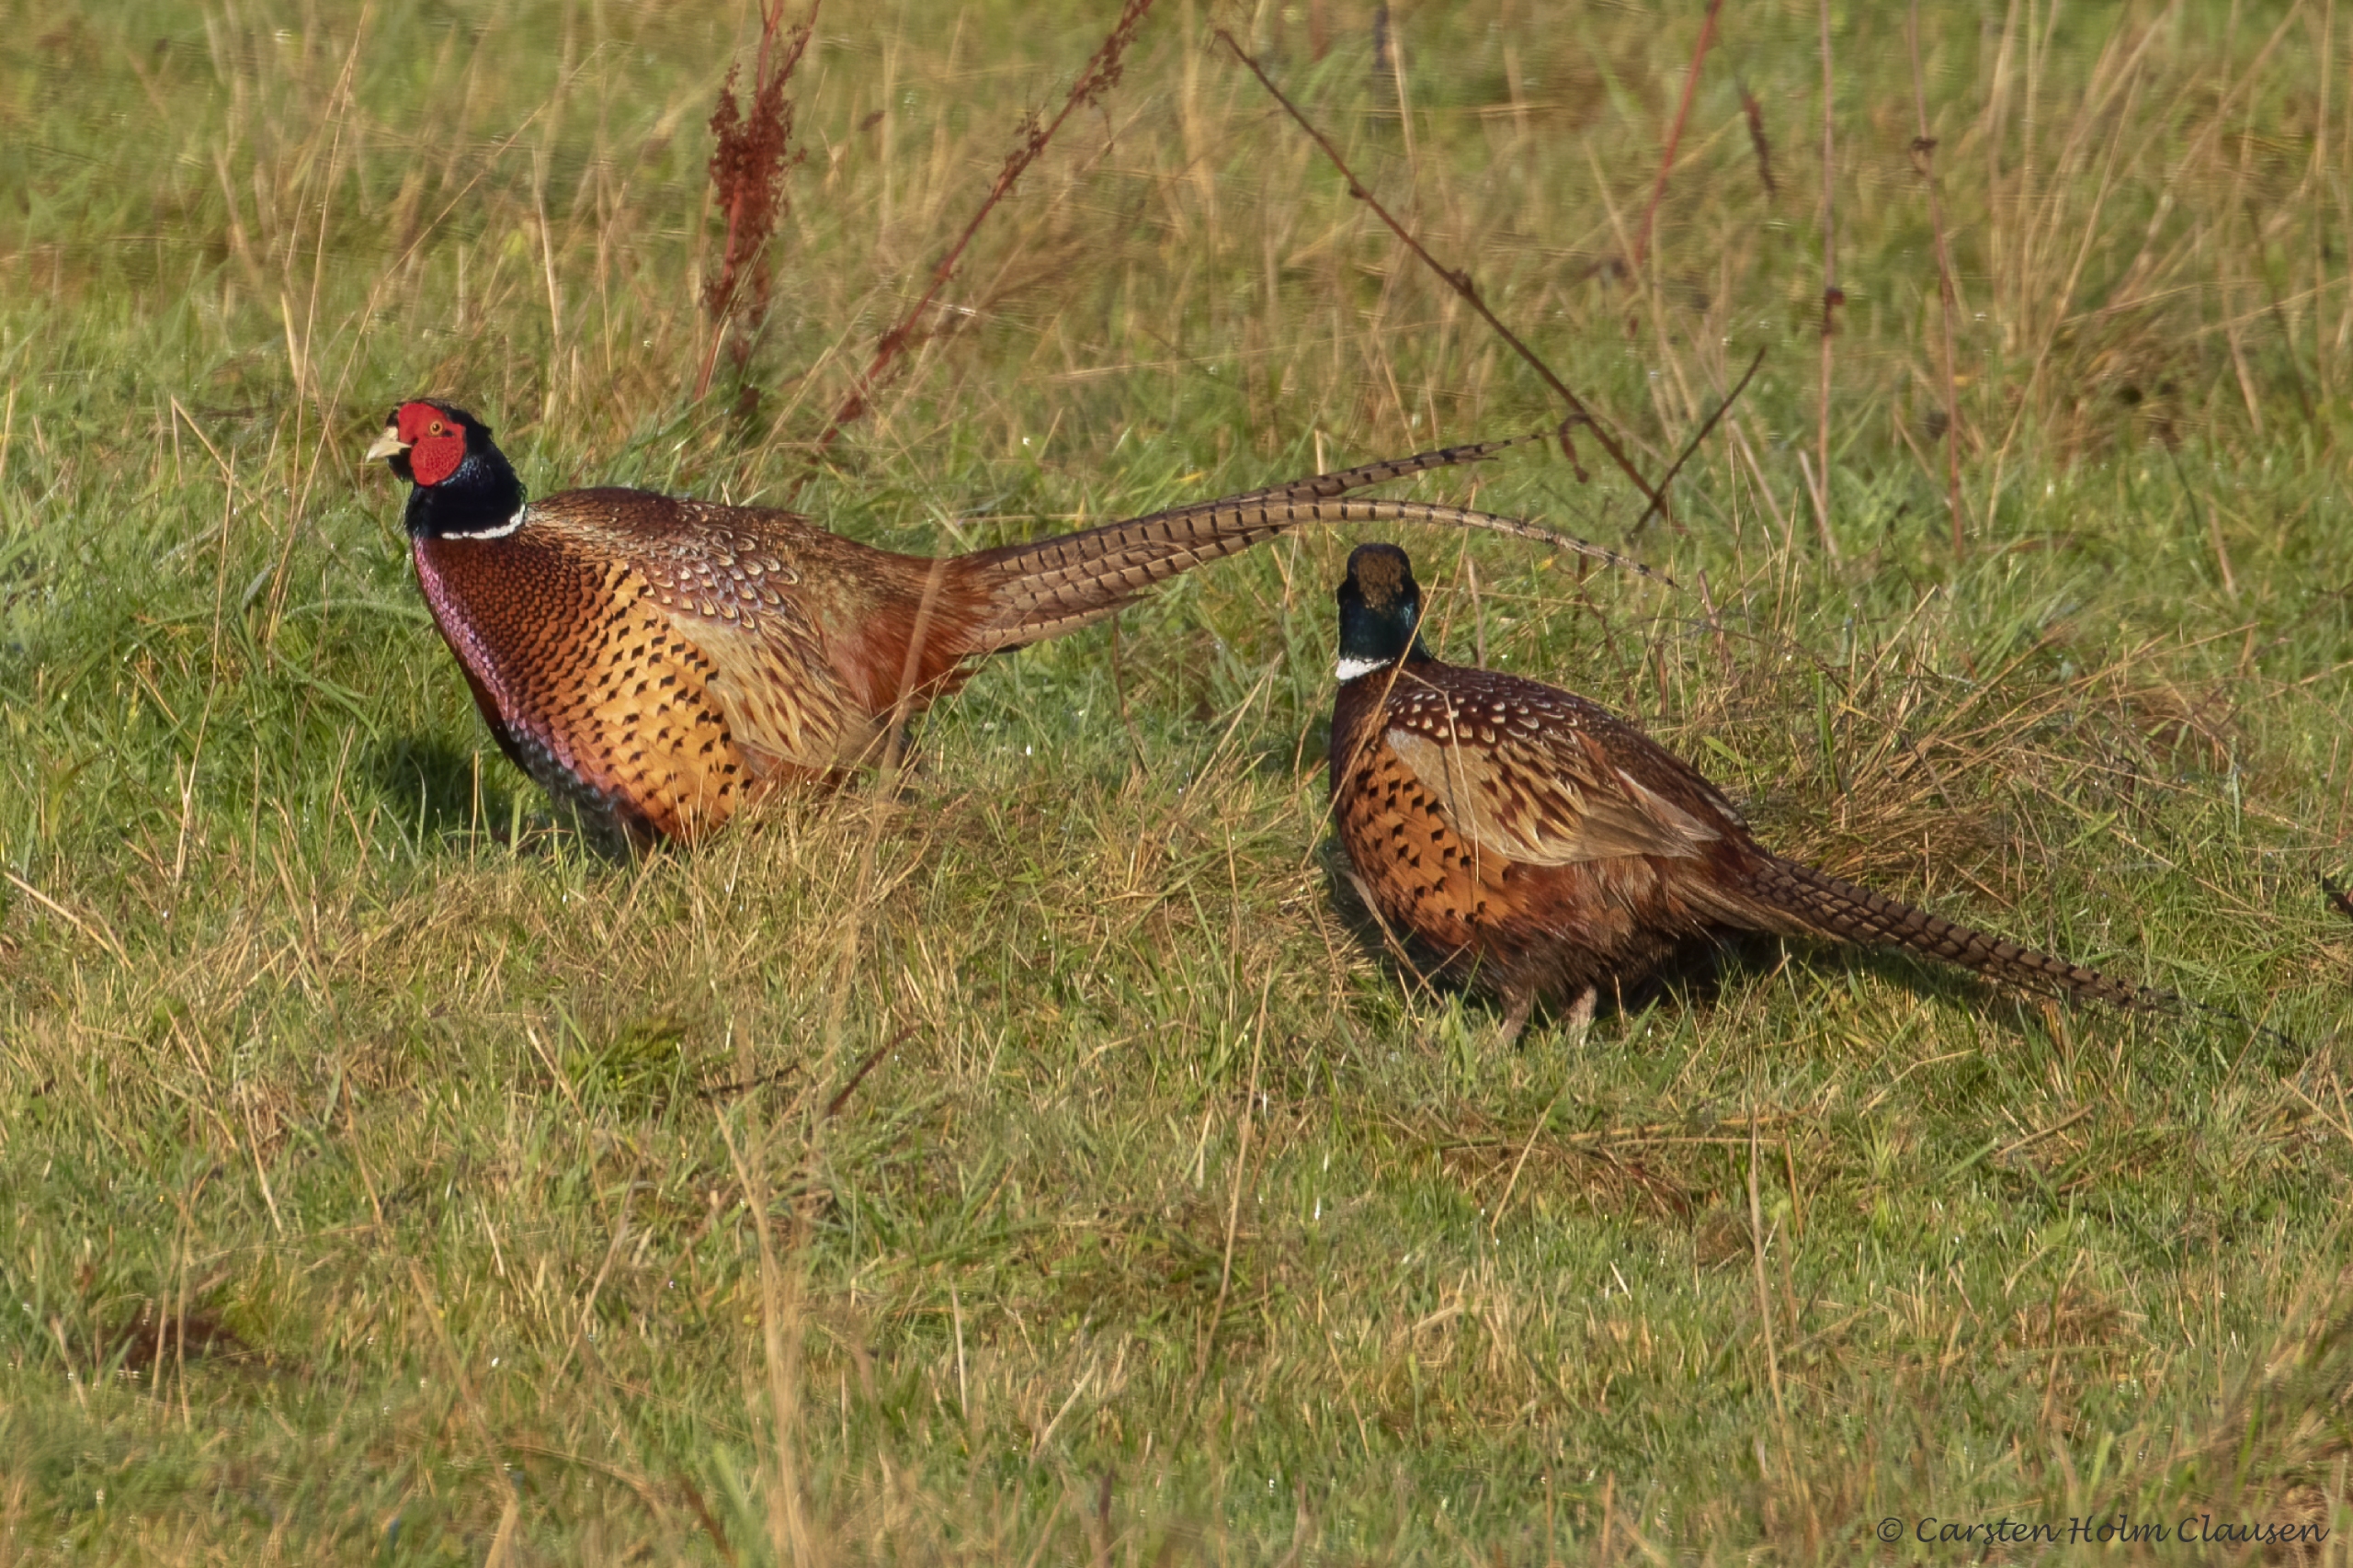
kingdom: Animalia
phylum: Chordata
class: Aves
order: Galliformes
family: Phasianidae
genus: Phasianus
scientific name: Phasianus colchicus
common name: Fasan
